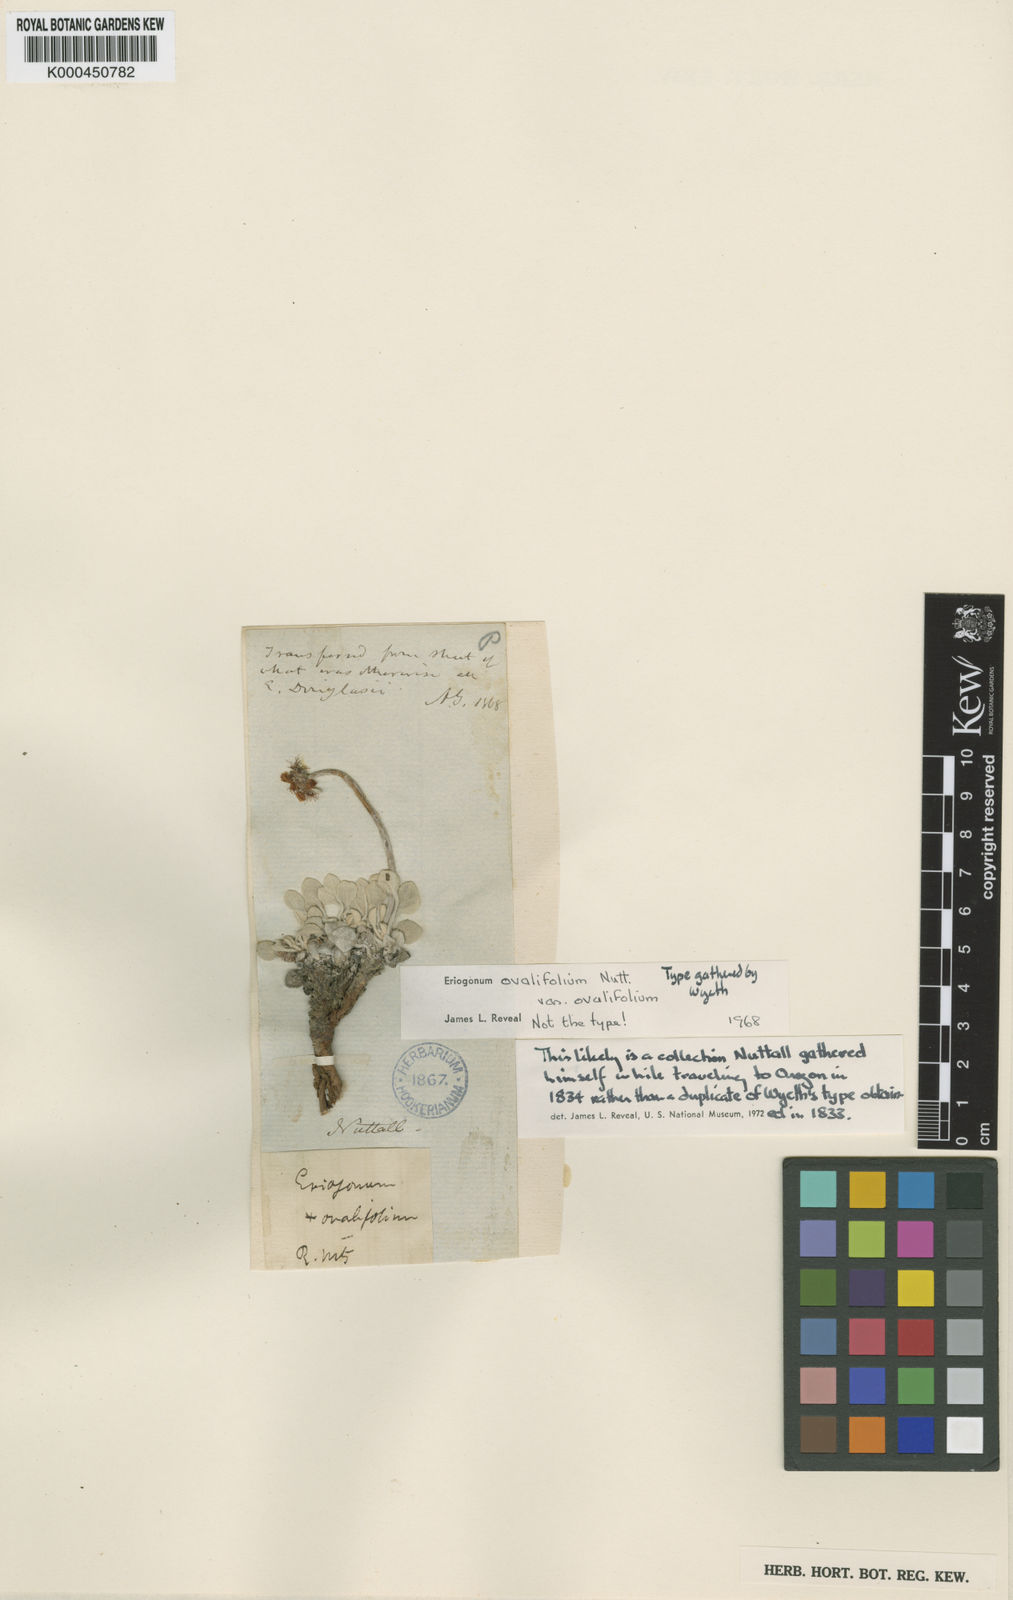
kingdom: Plantae
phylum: Tracheophyta
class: Magnoliopsida
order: Caryophyllales
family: Polygonaceae
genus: Eriogonum
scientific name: Eriogonum ovalifolium
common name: Cushion buckwheat
